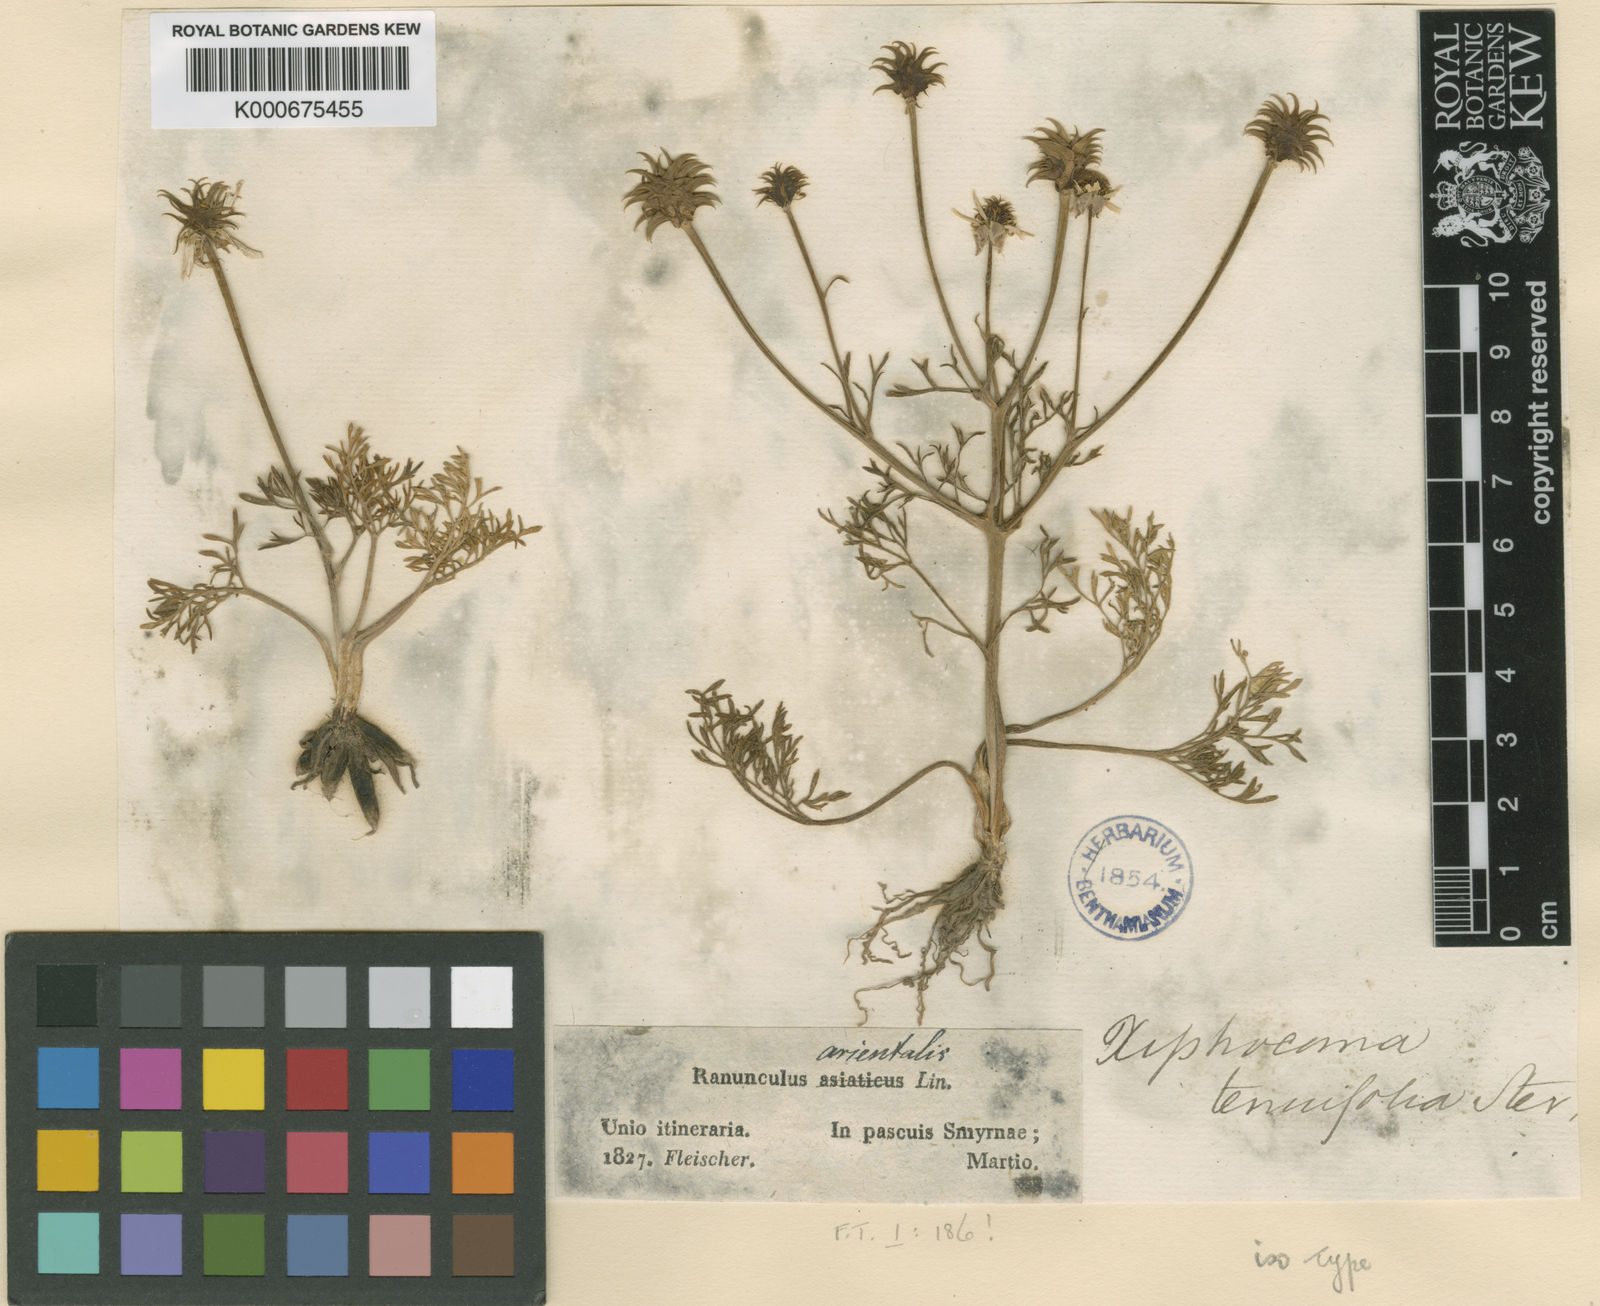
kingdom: Plantae
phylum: Tracheophyta
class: Magnoliopsida
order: Ranunculales
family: Ranunculaceae
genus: Ranunculus
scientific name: Ranunculus isthmicus
